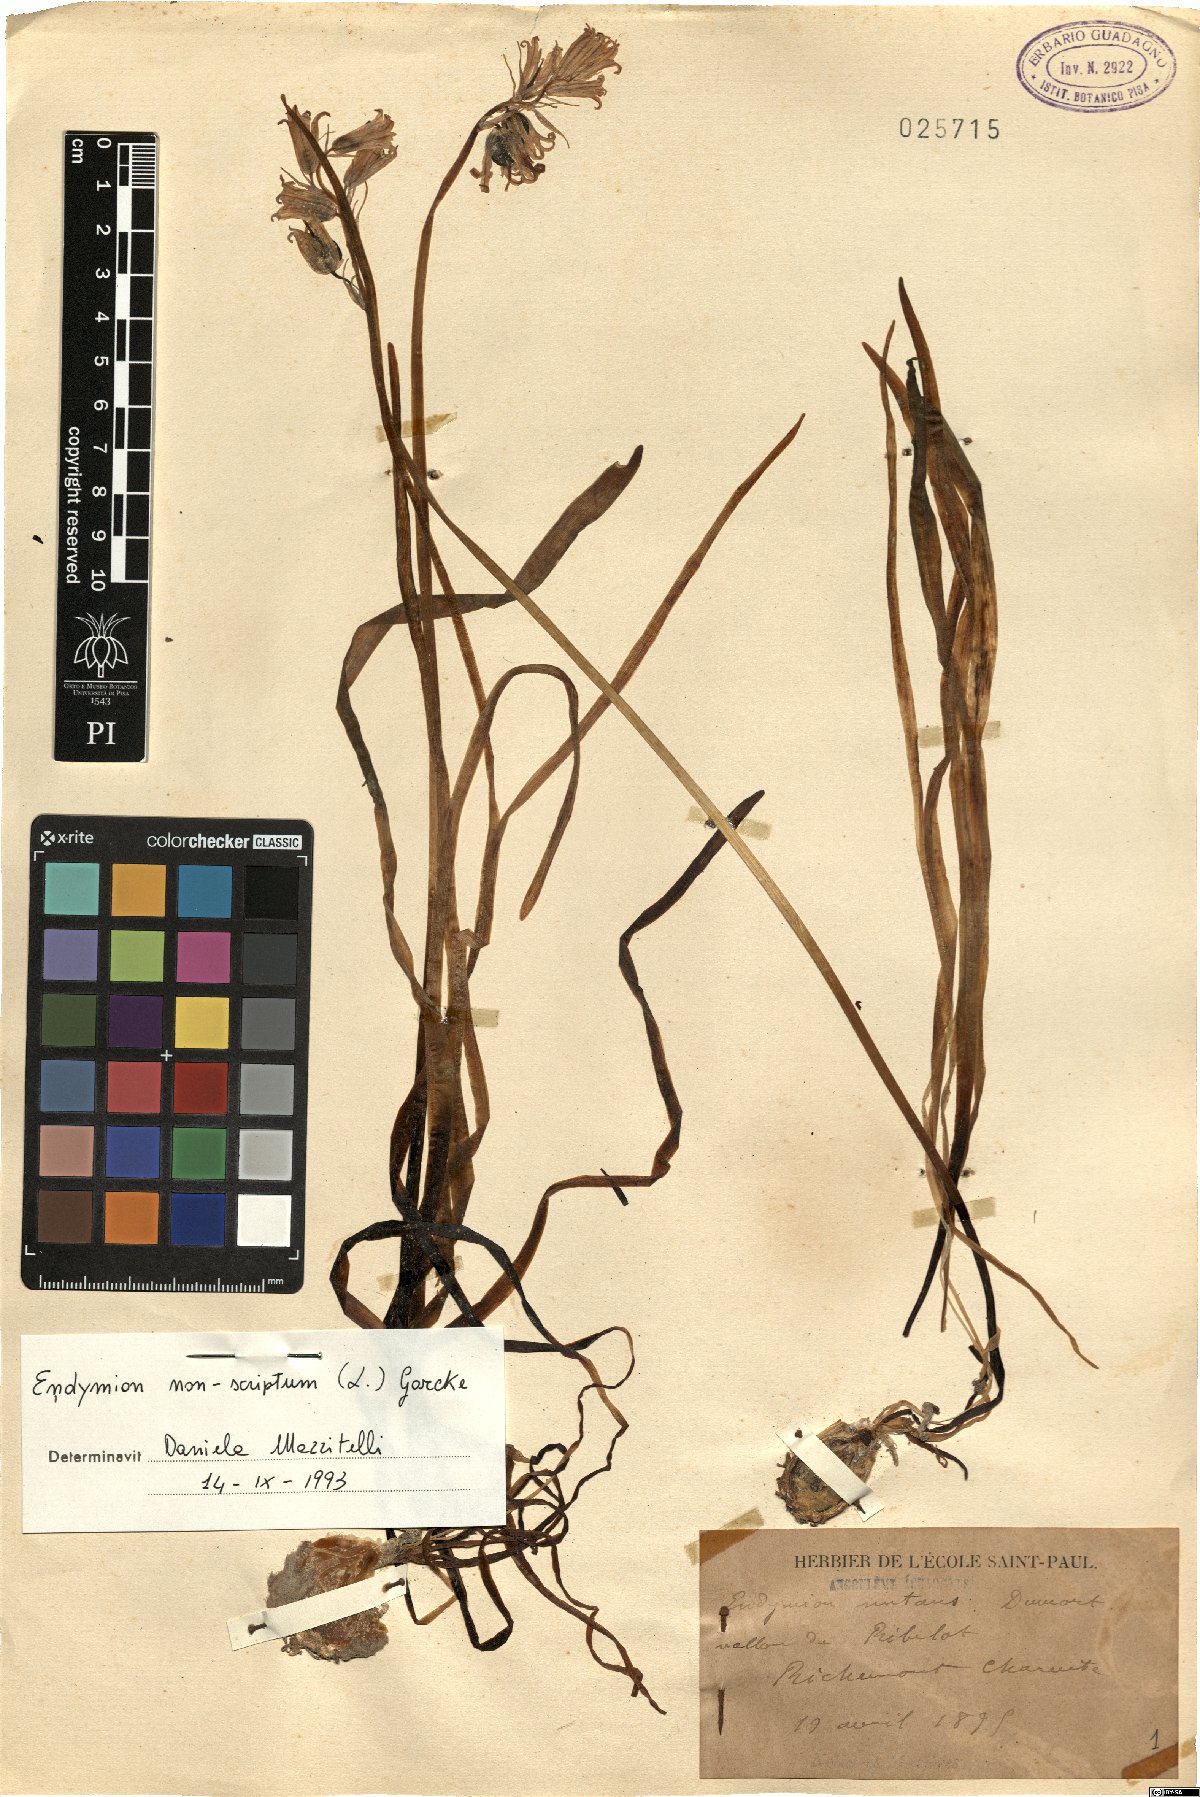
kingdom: Plantae
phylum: Tracheophyta
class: Liliopsida
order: Asparagales
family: Asparagaceae
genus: Hyacinthoides
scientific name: Hyacinthoides non-scripta
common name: Bluebell
